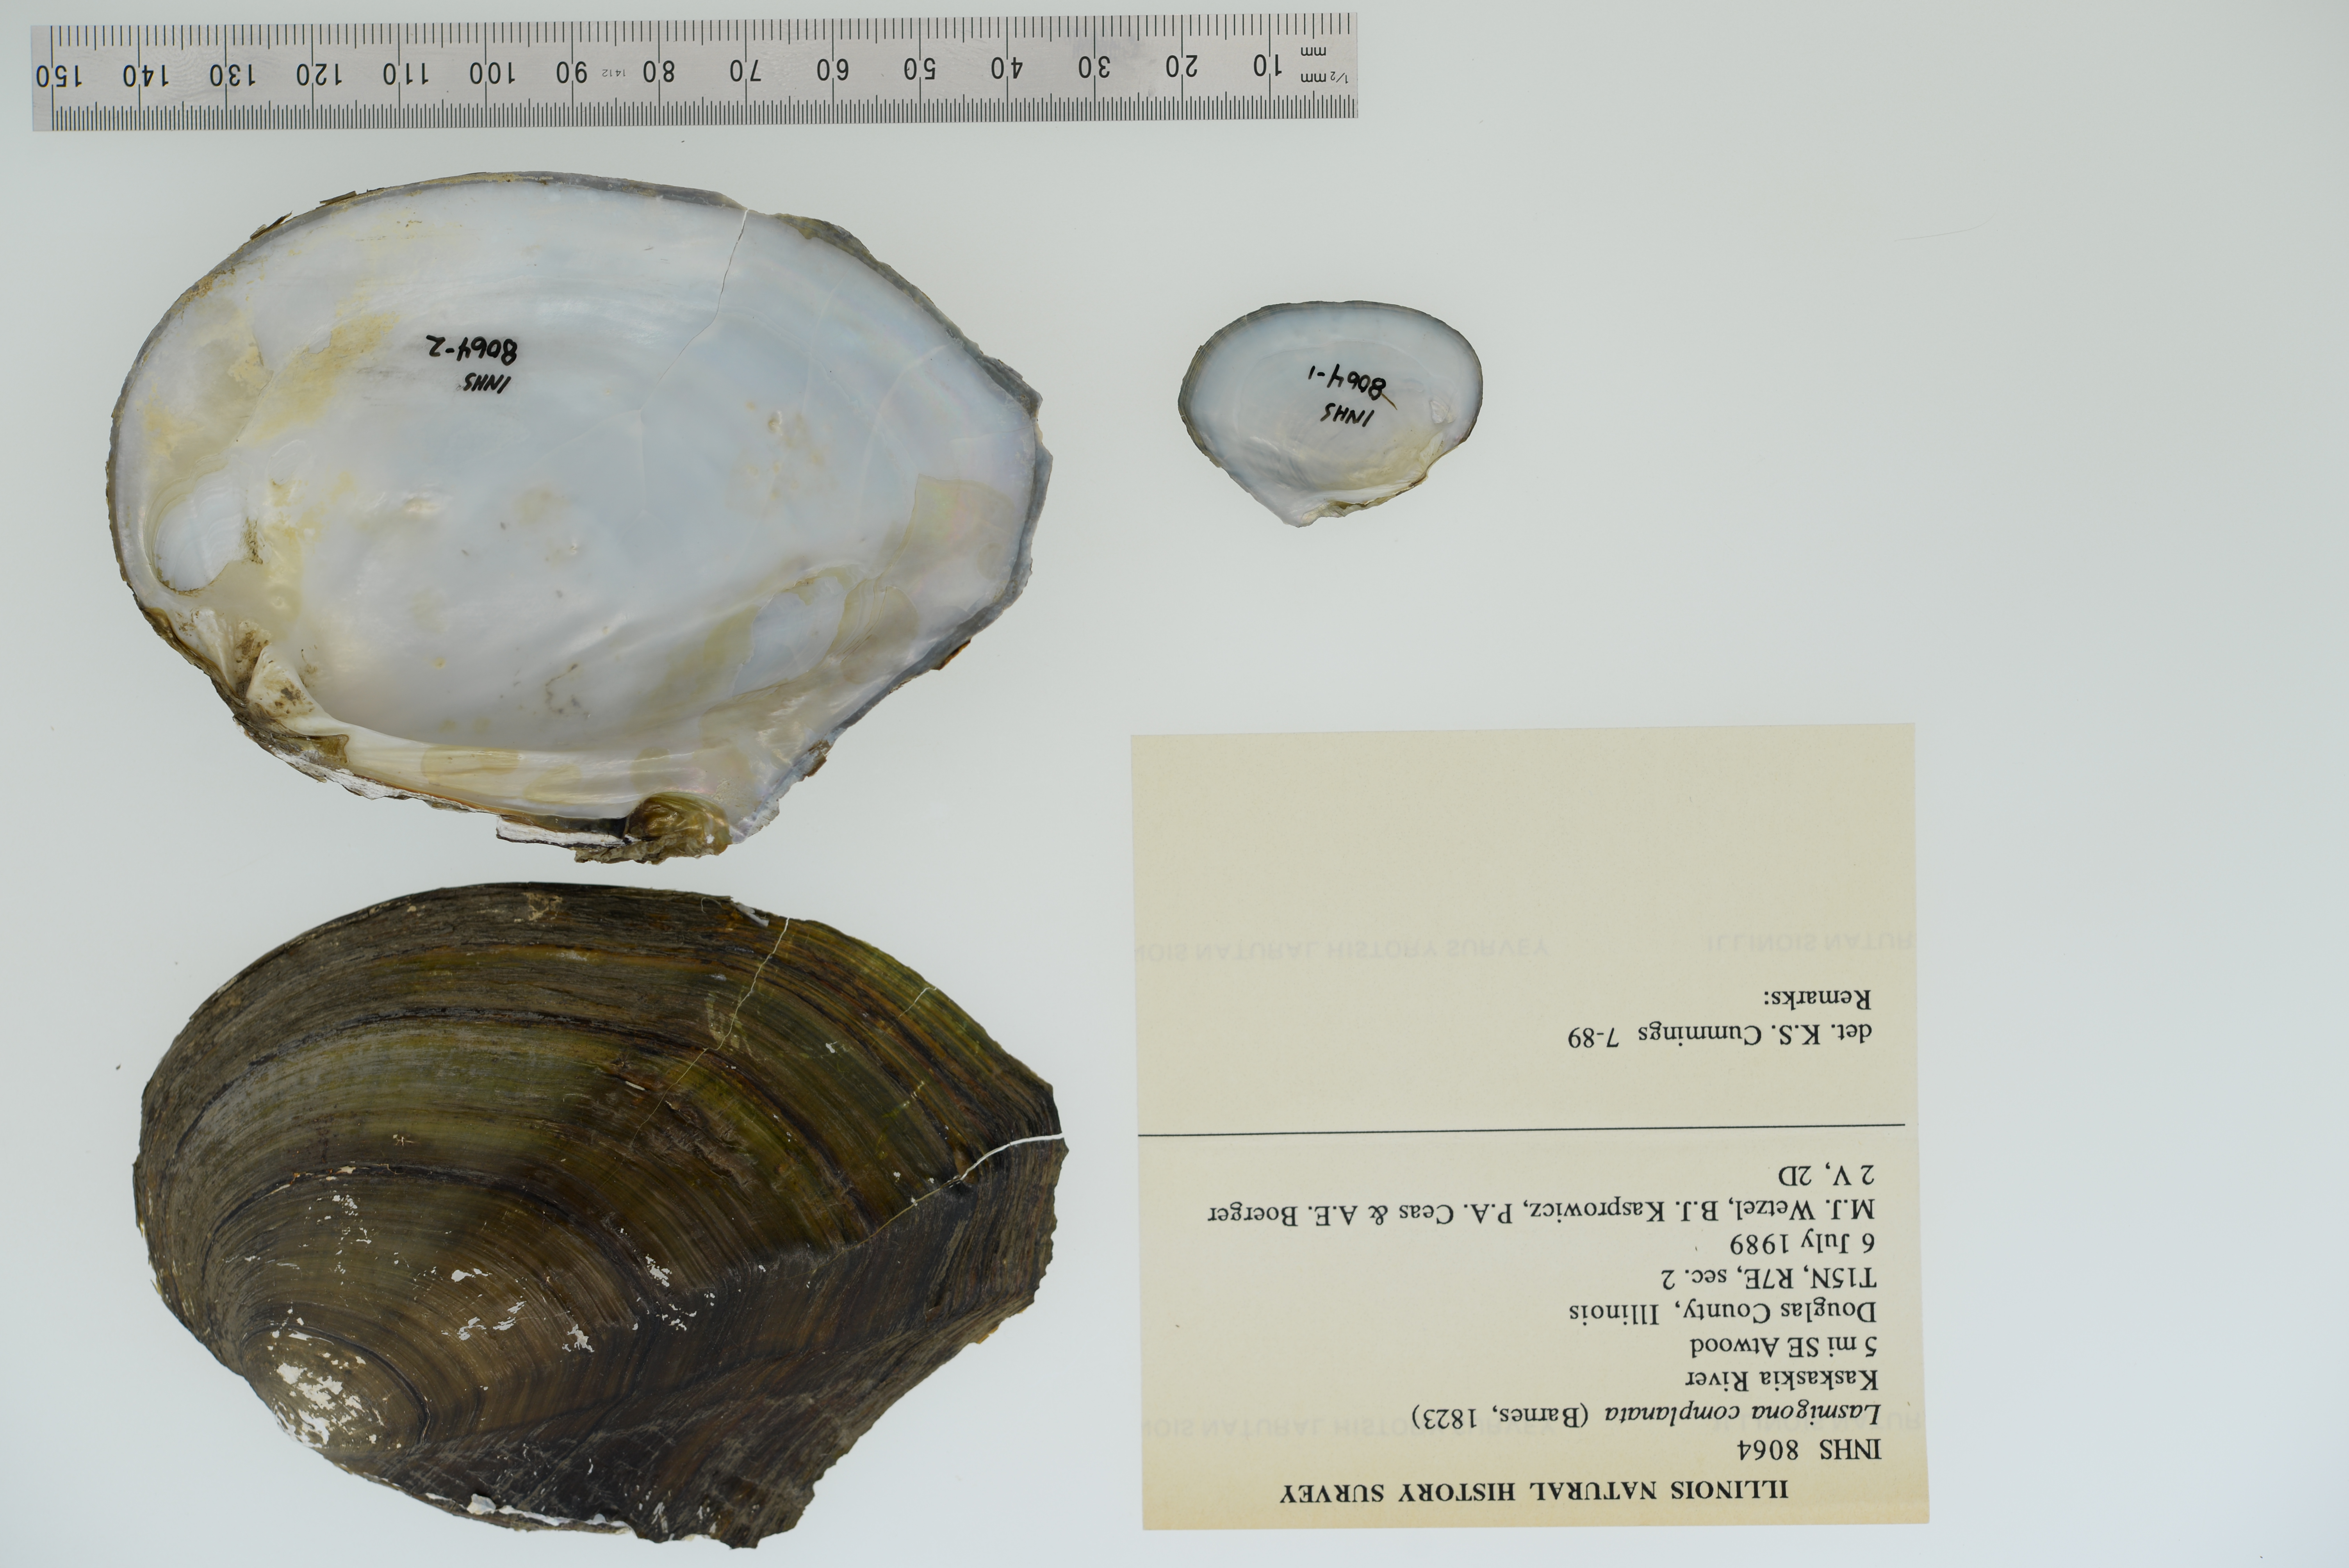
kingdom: Animalia
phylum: Mollusca
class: Bivalvia
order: Unionida
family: Unionidae
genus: Lasmigona
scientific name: Lasmigona complanata
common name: White heelsplitter
